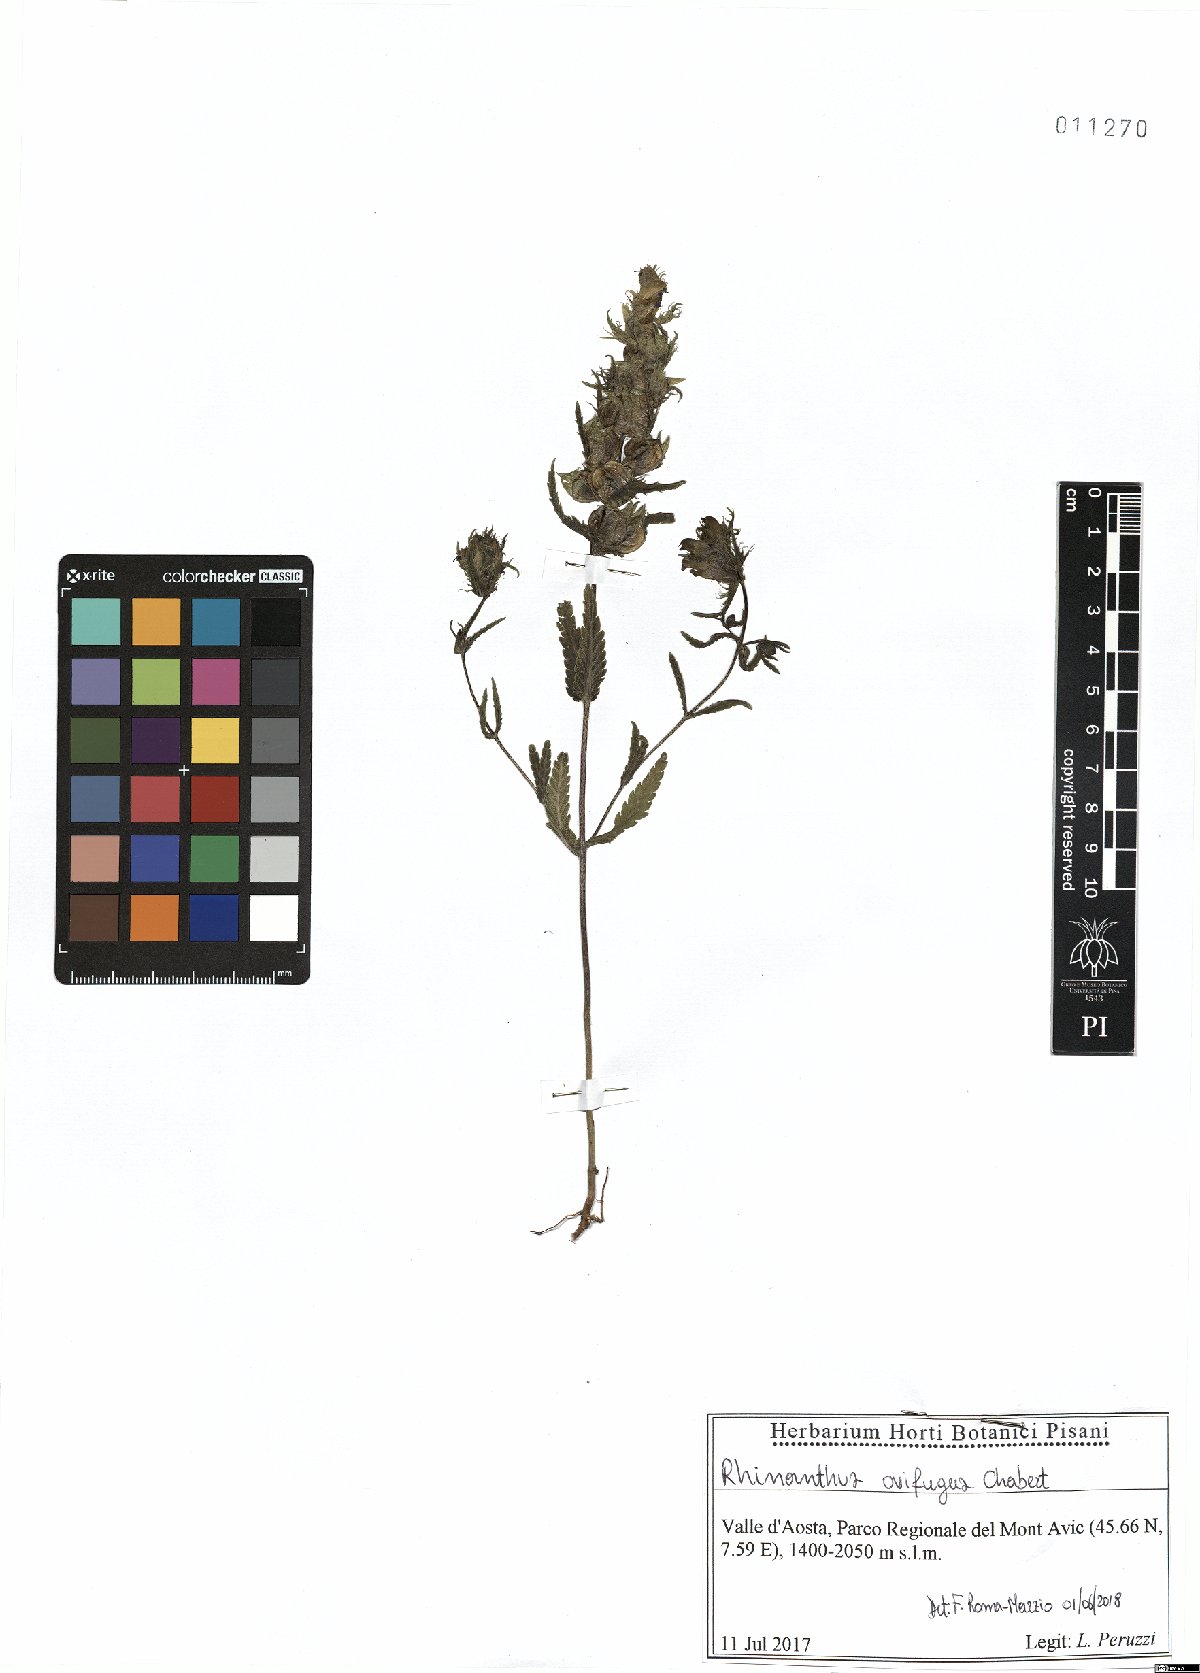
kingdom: Plantae
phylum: Tracheophyta
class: Magnoliopsida
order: Lamiales
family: Orobanchaceae
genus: Rhinanthus
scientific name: Rhinanthus ovifugus
